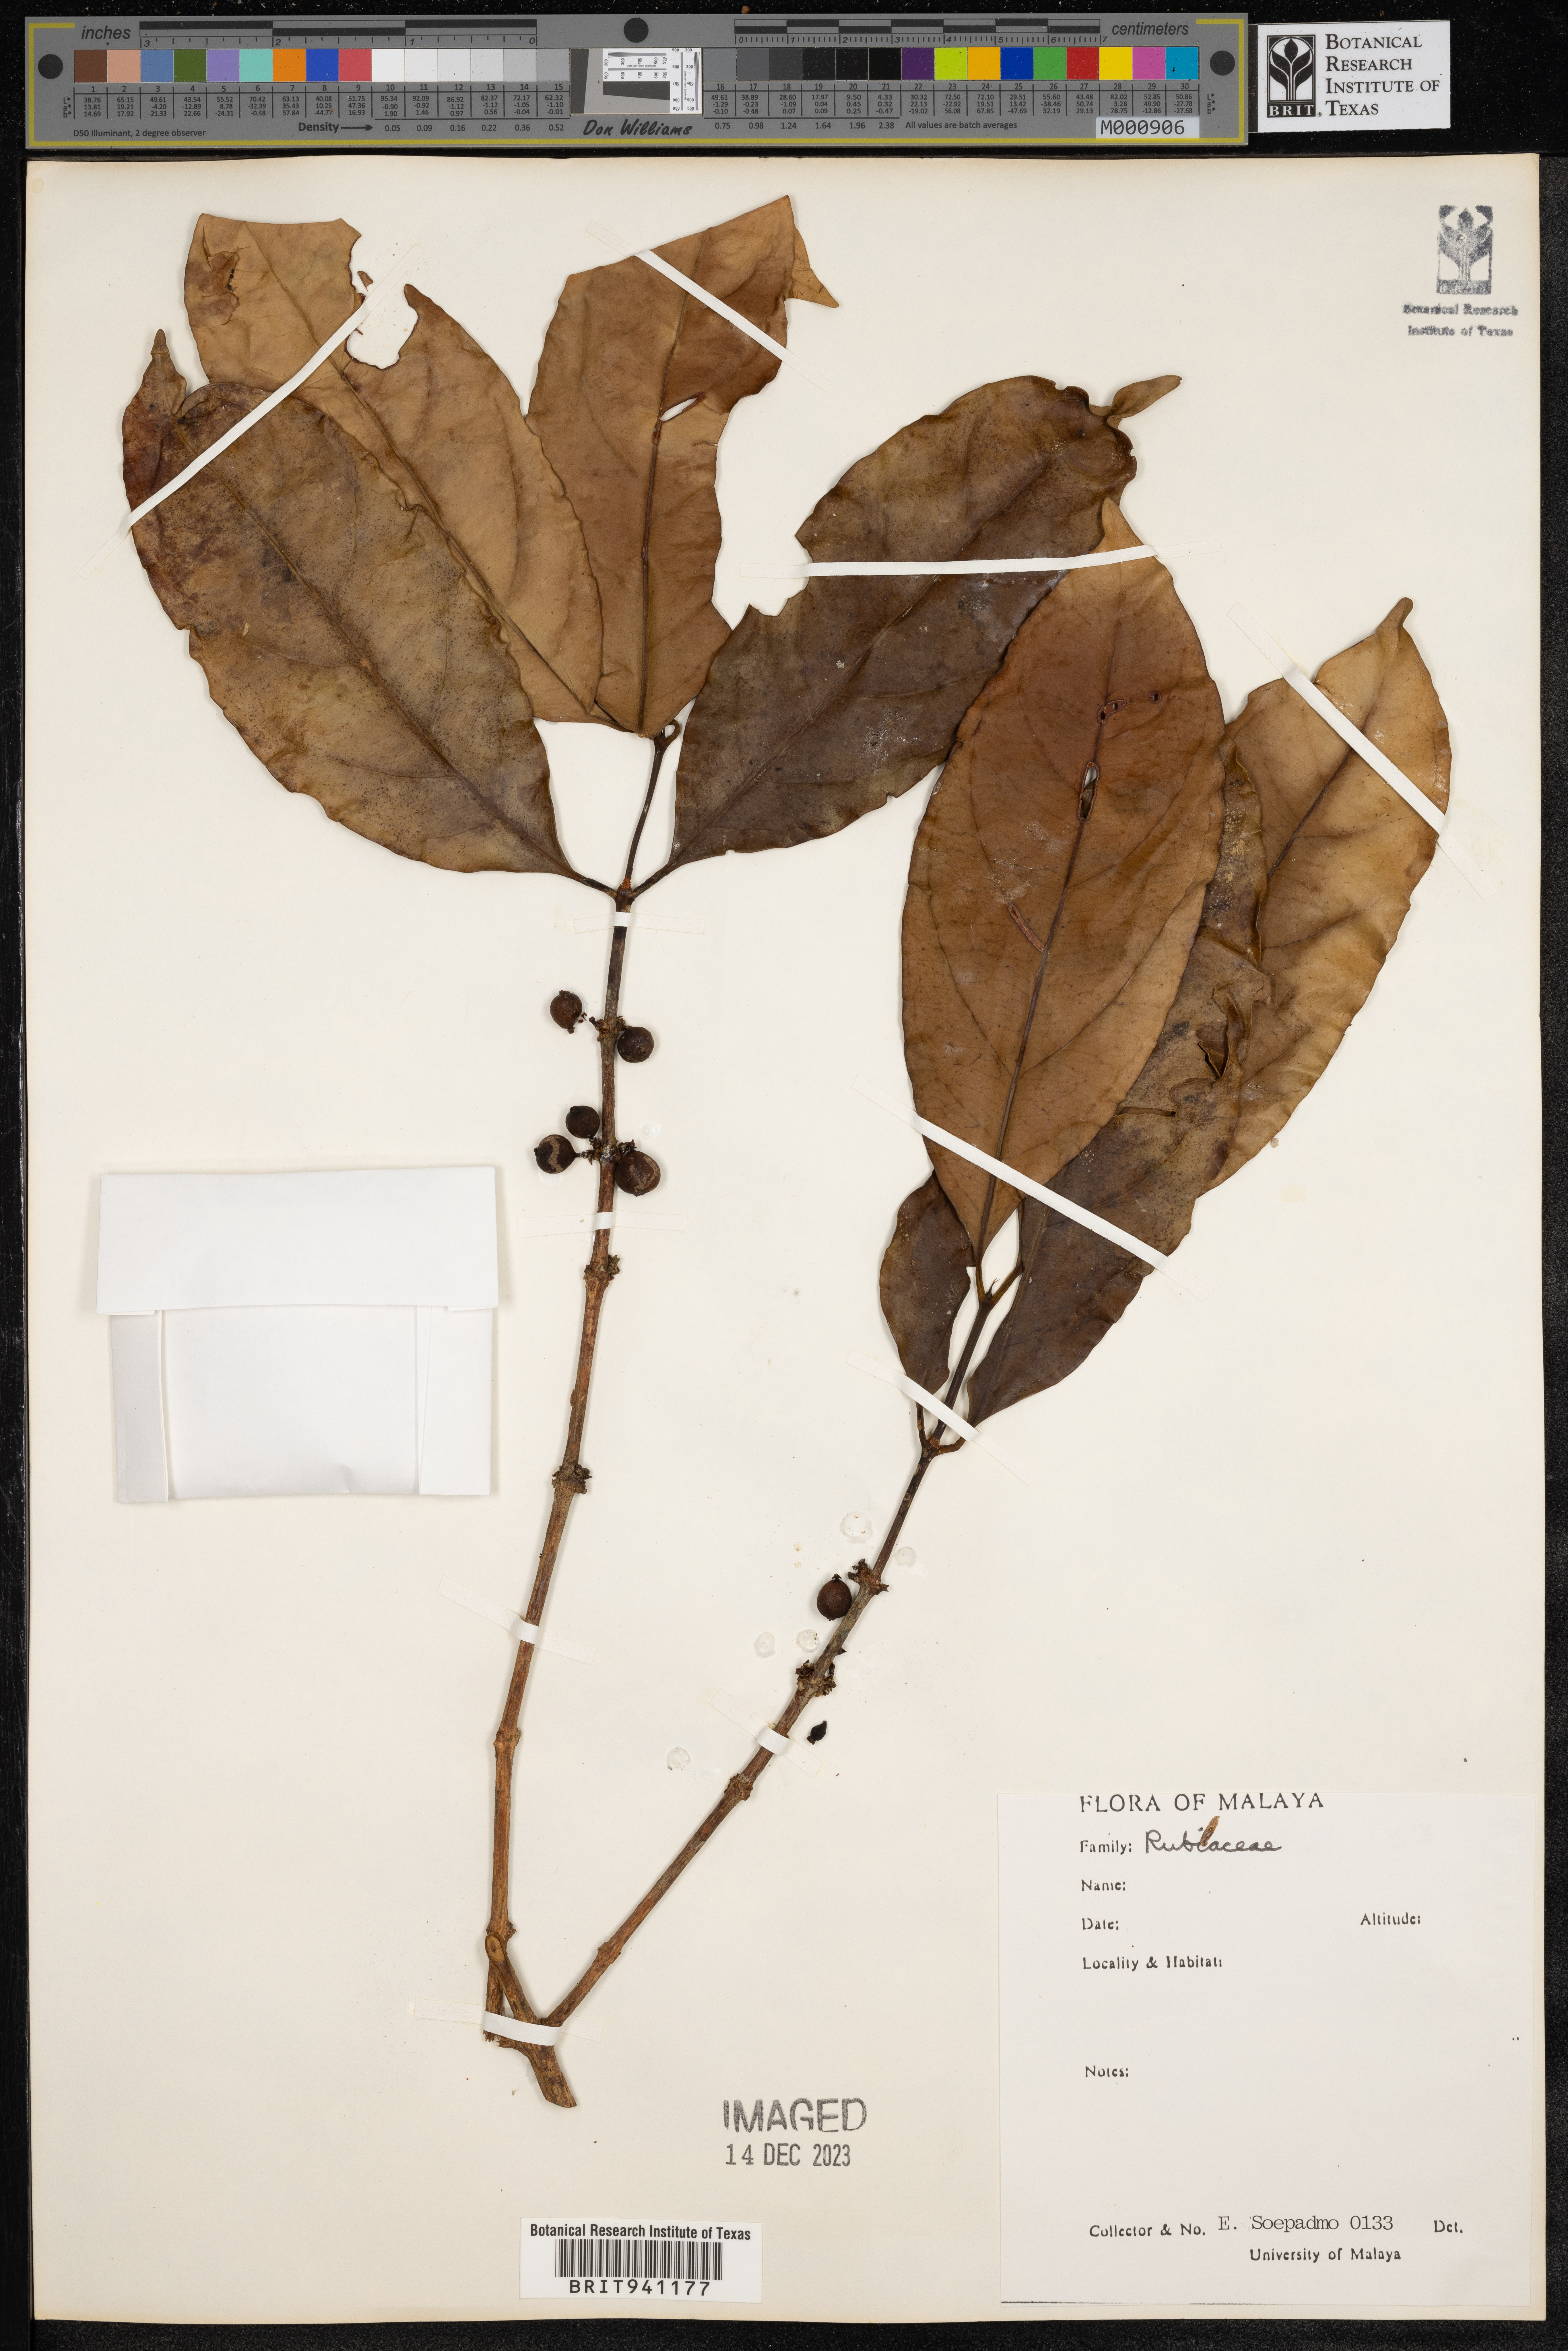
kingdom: Plantae
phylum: Tracheophyta
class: Magnoliopsida
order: Gentianales
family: Rubiaceae
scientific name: Rubiaceae
